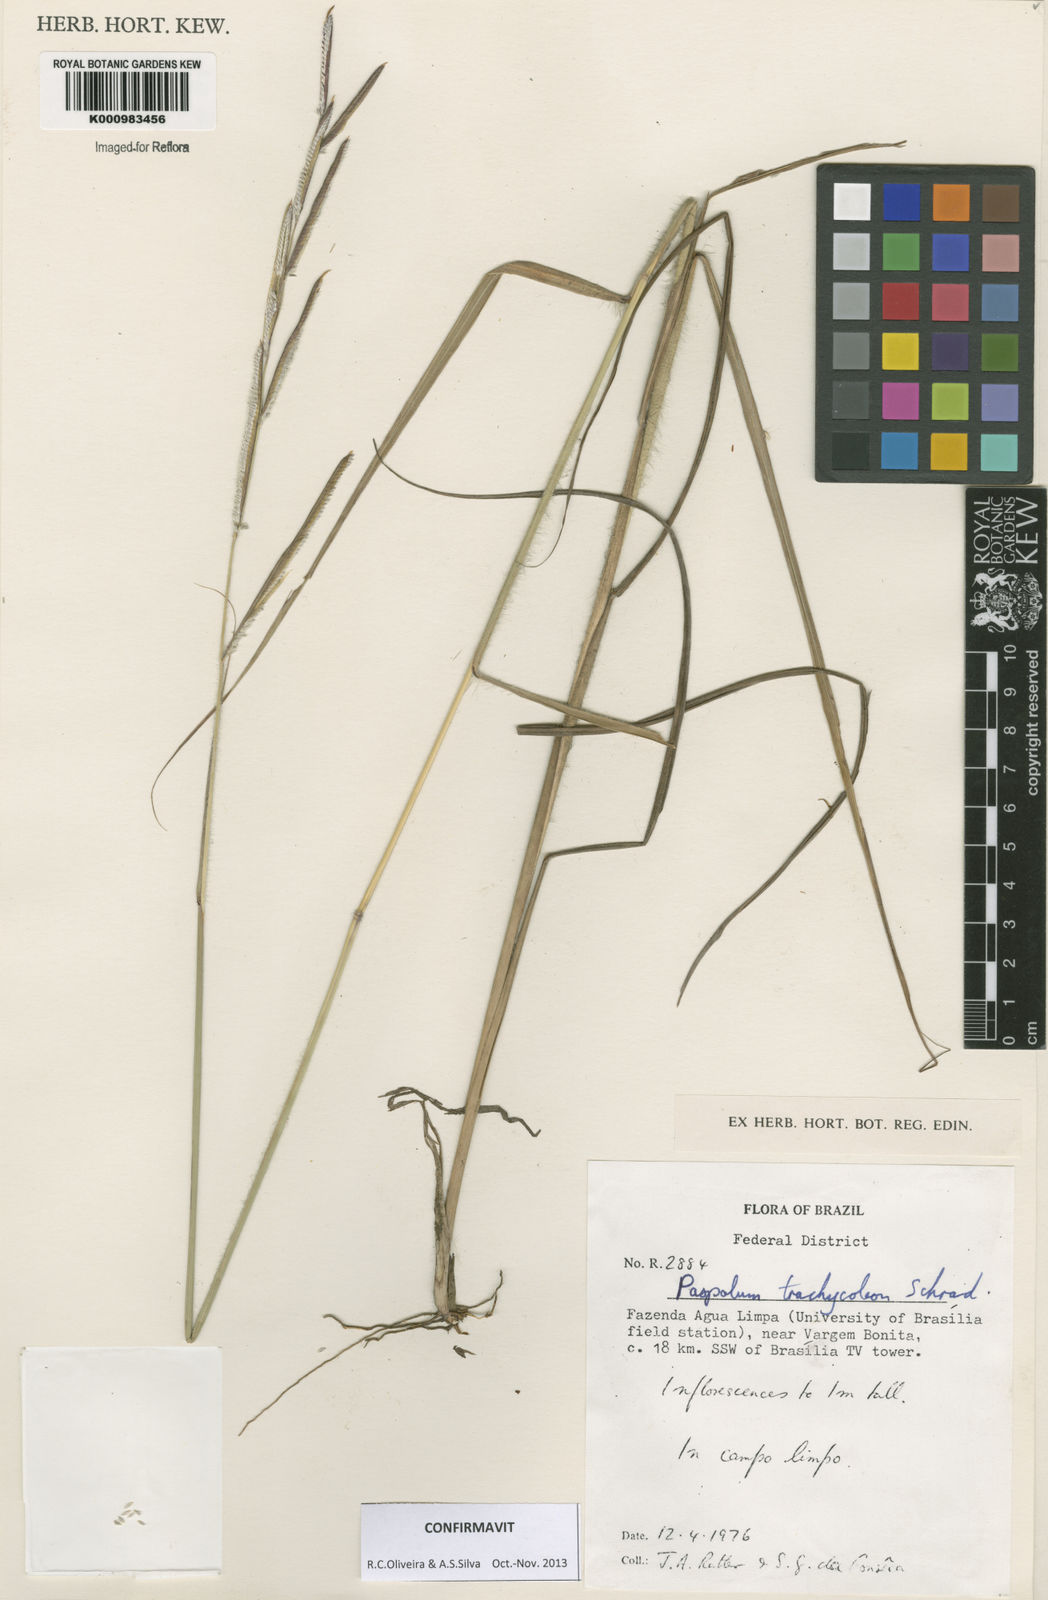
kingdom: Plantae
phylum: Tracheophyta
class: Liliopsida
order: Poales
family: Poaceae
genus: Paspalum
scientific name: Paspalum trachycoleon
